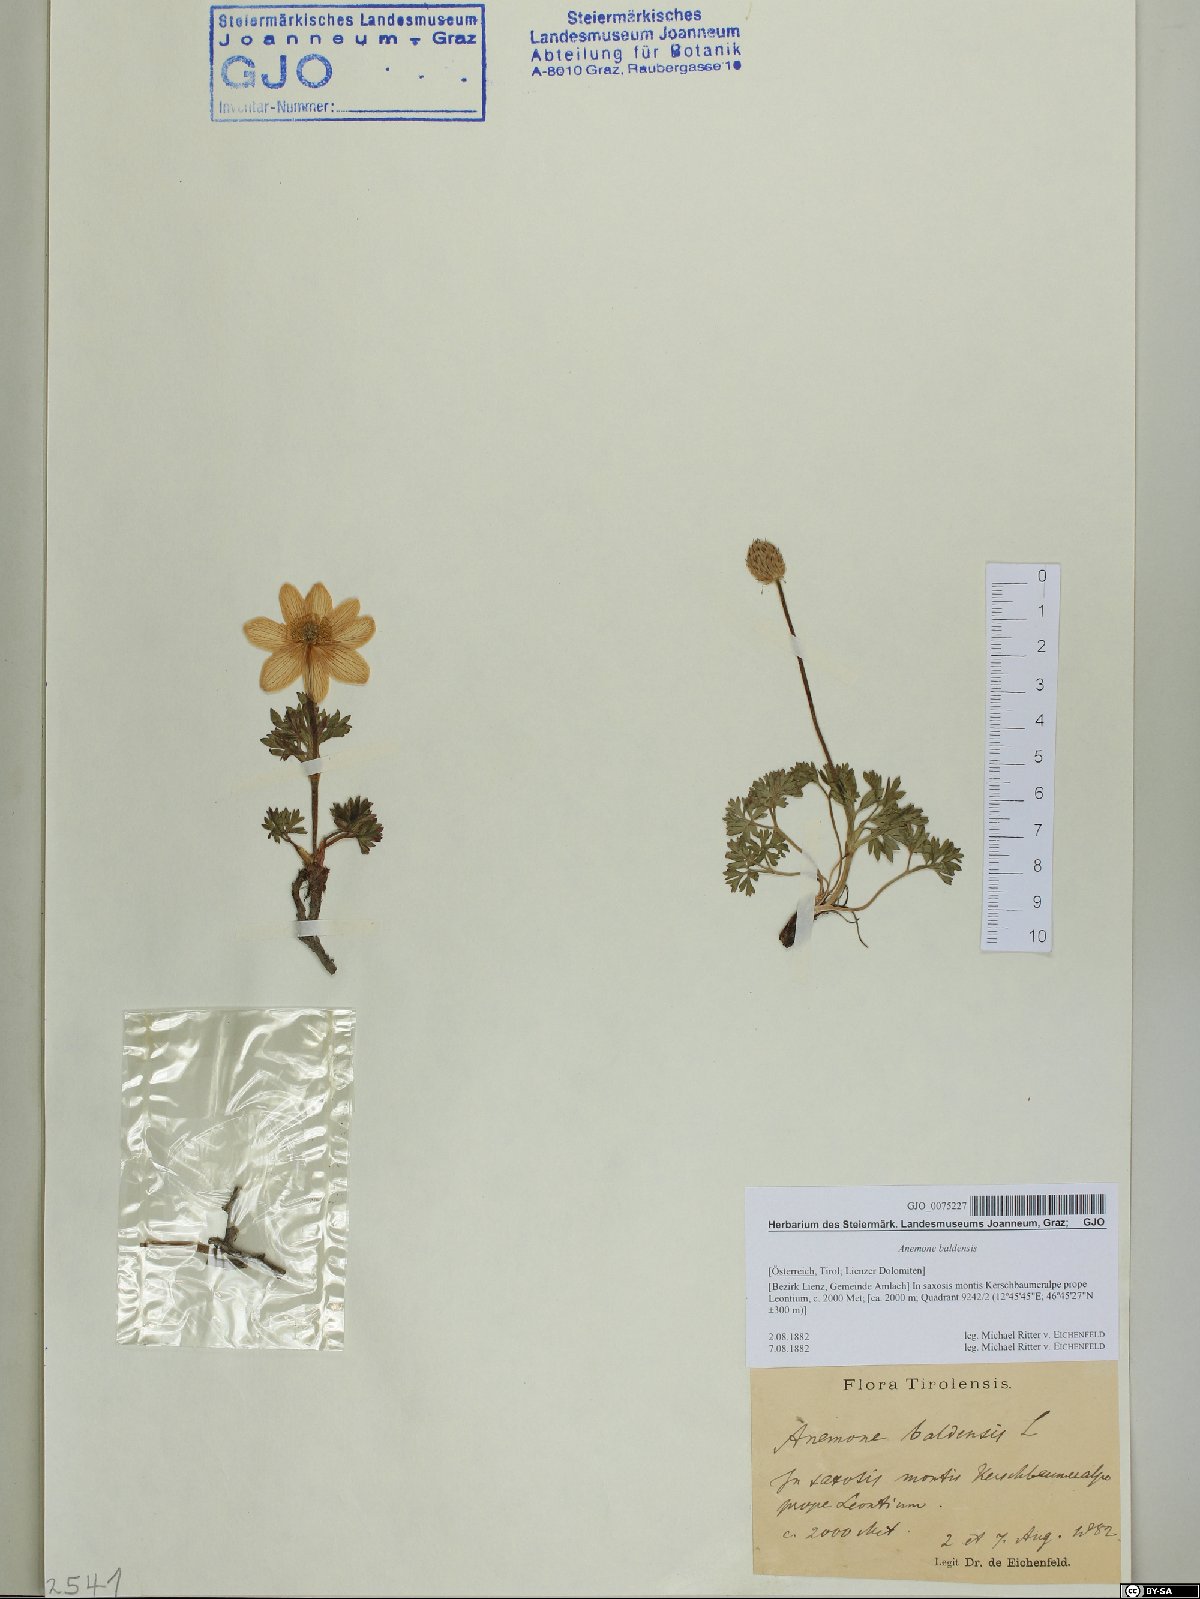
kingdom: Plantae
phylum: Tracheophyta
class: Magnoliopsida
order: Ranunculales
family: Ranunculaceae
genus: Anemone
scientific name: Anemone baldensis
